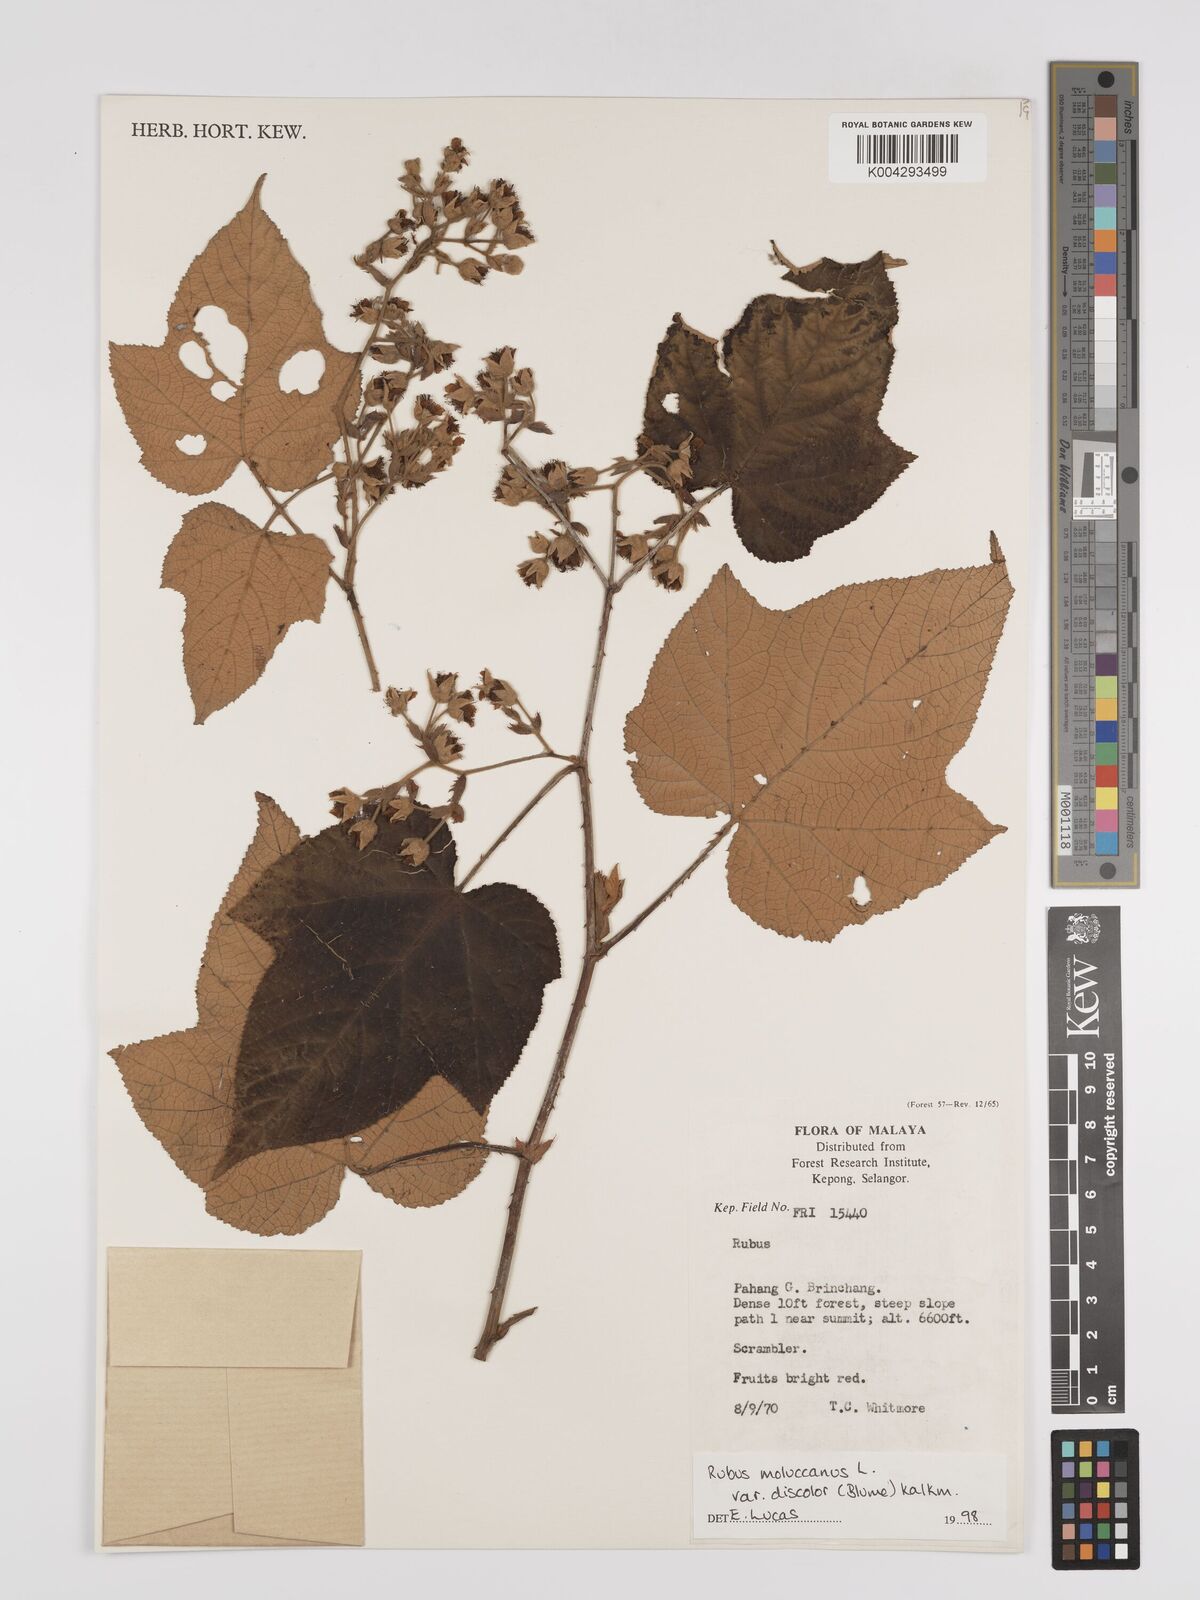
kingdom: Plantae
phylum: Tracheophyta
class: Magnoliopsida
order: Rosales
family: Rosaceae
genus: Rubus
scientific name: Rubus moluccanus
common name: Wild raspberry
